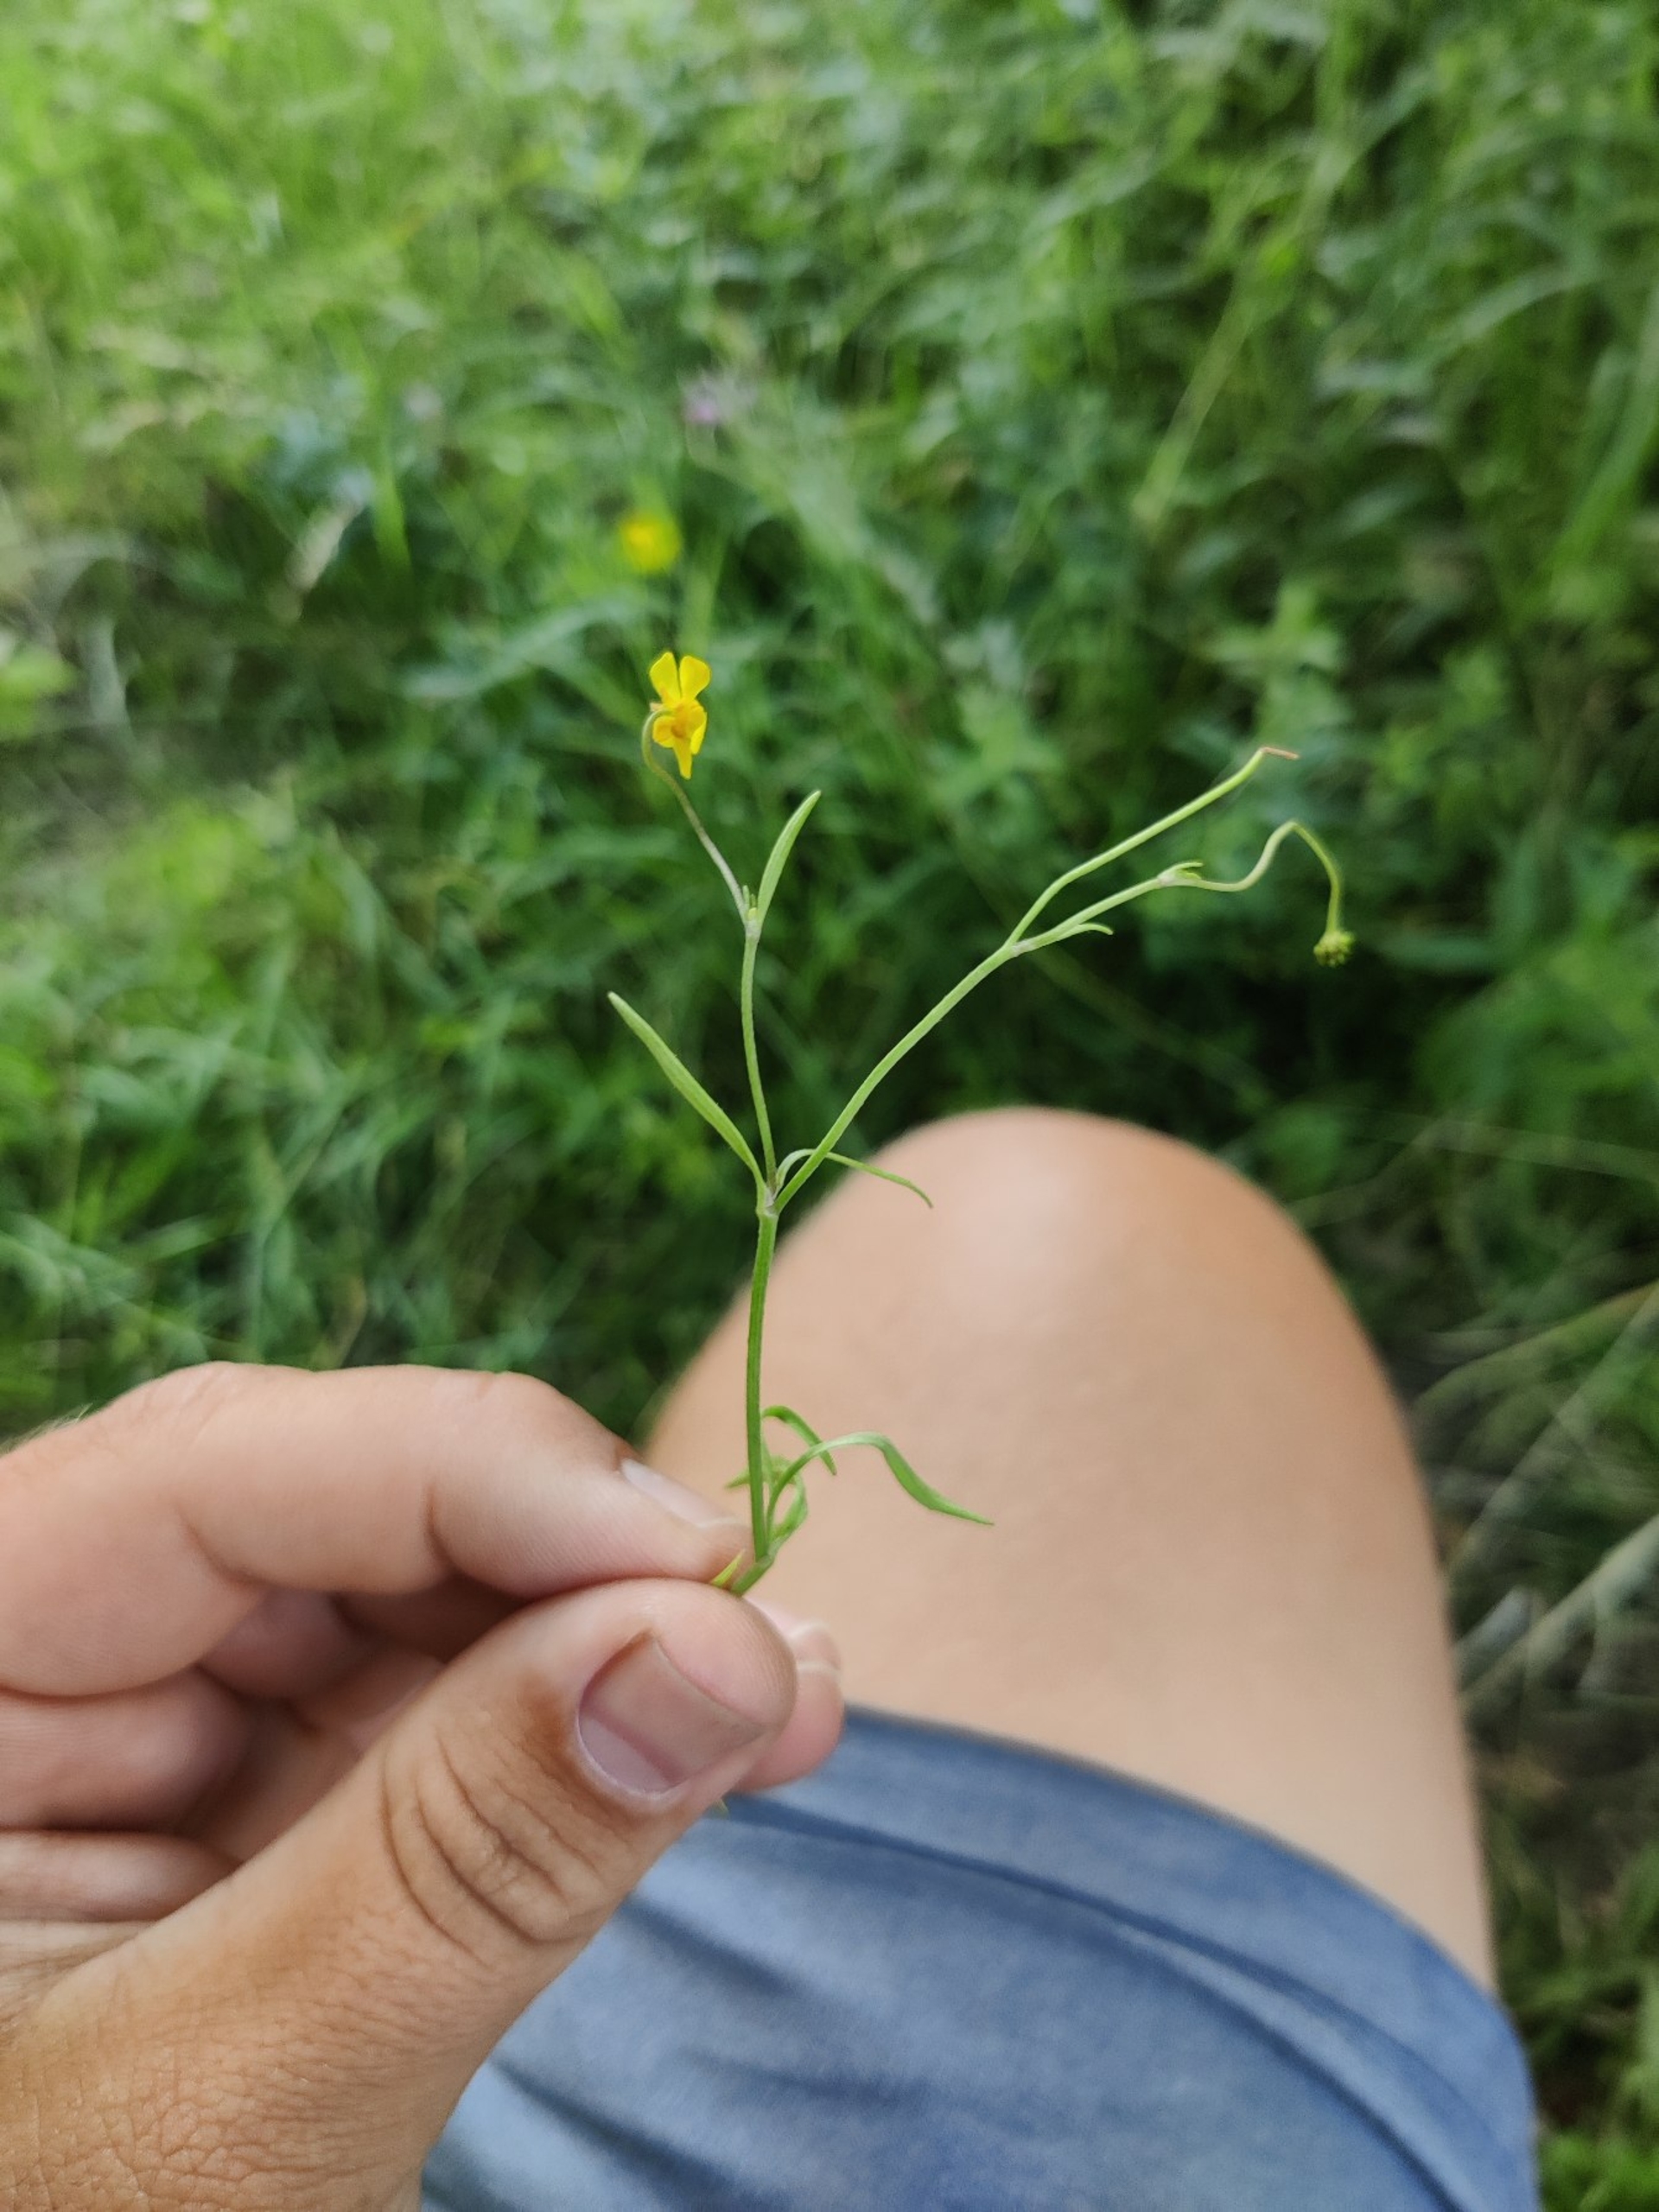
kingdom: Plantae
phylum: Tracheophyta
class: Magnoliopsida
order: Ranunculales
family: Ranunculaceae
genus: Ranunculus
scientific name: Ranunculus flammula
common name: Kær-ranunkel
